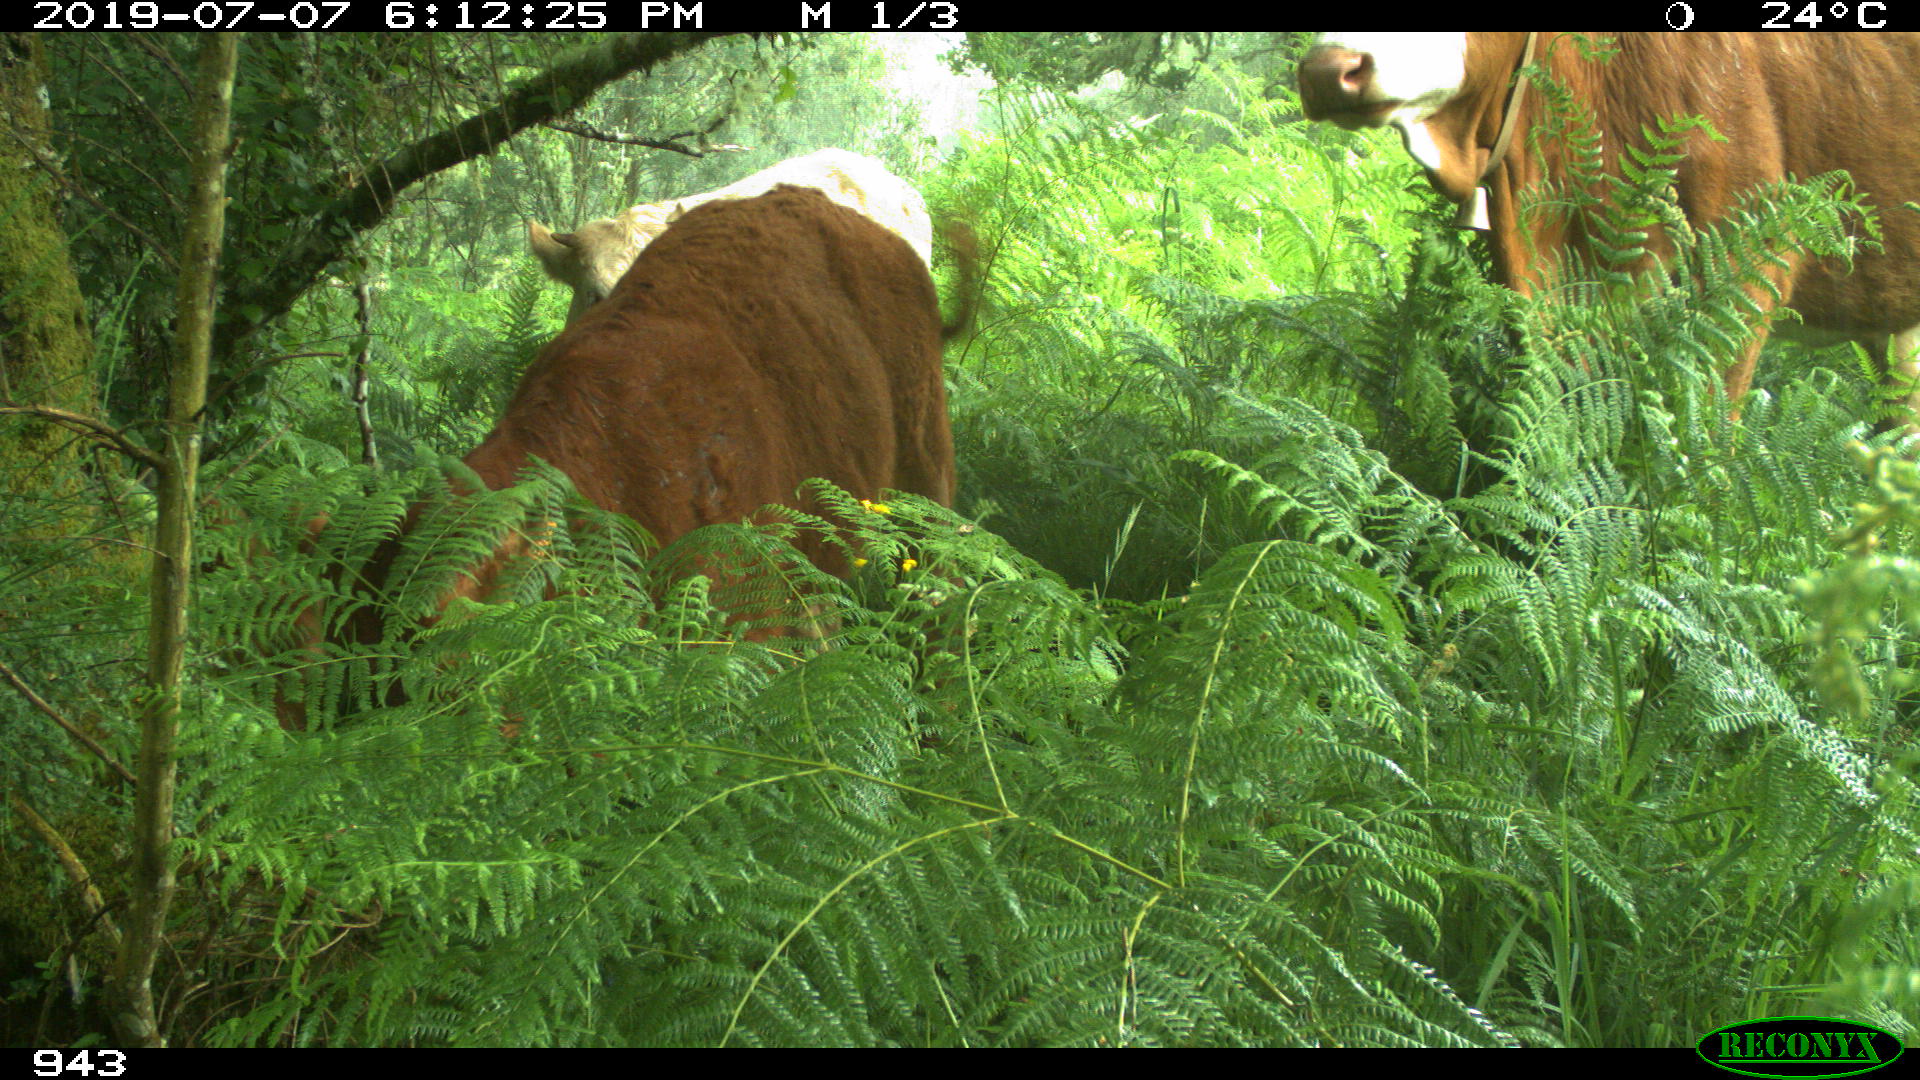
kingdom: Animalia
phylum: Chordata
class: Mammalia
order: Artiodactyla
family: Bovidae
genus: Bos
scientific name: Bos taurus
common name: Domesticated cattle
